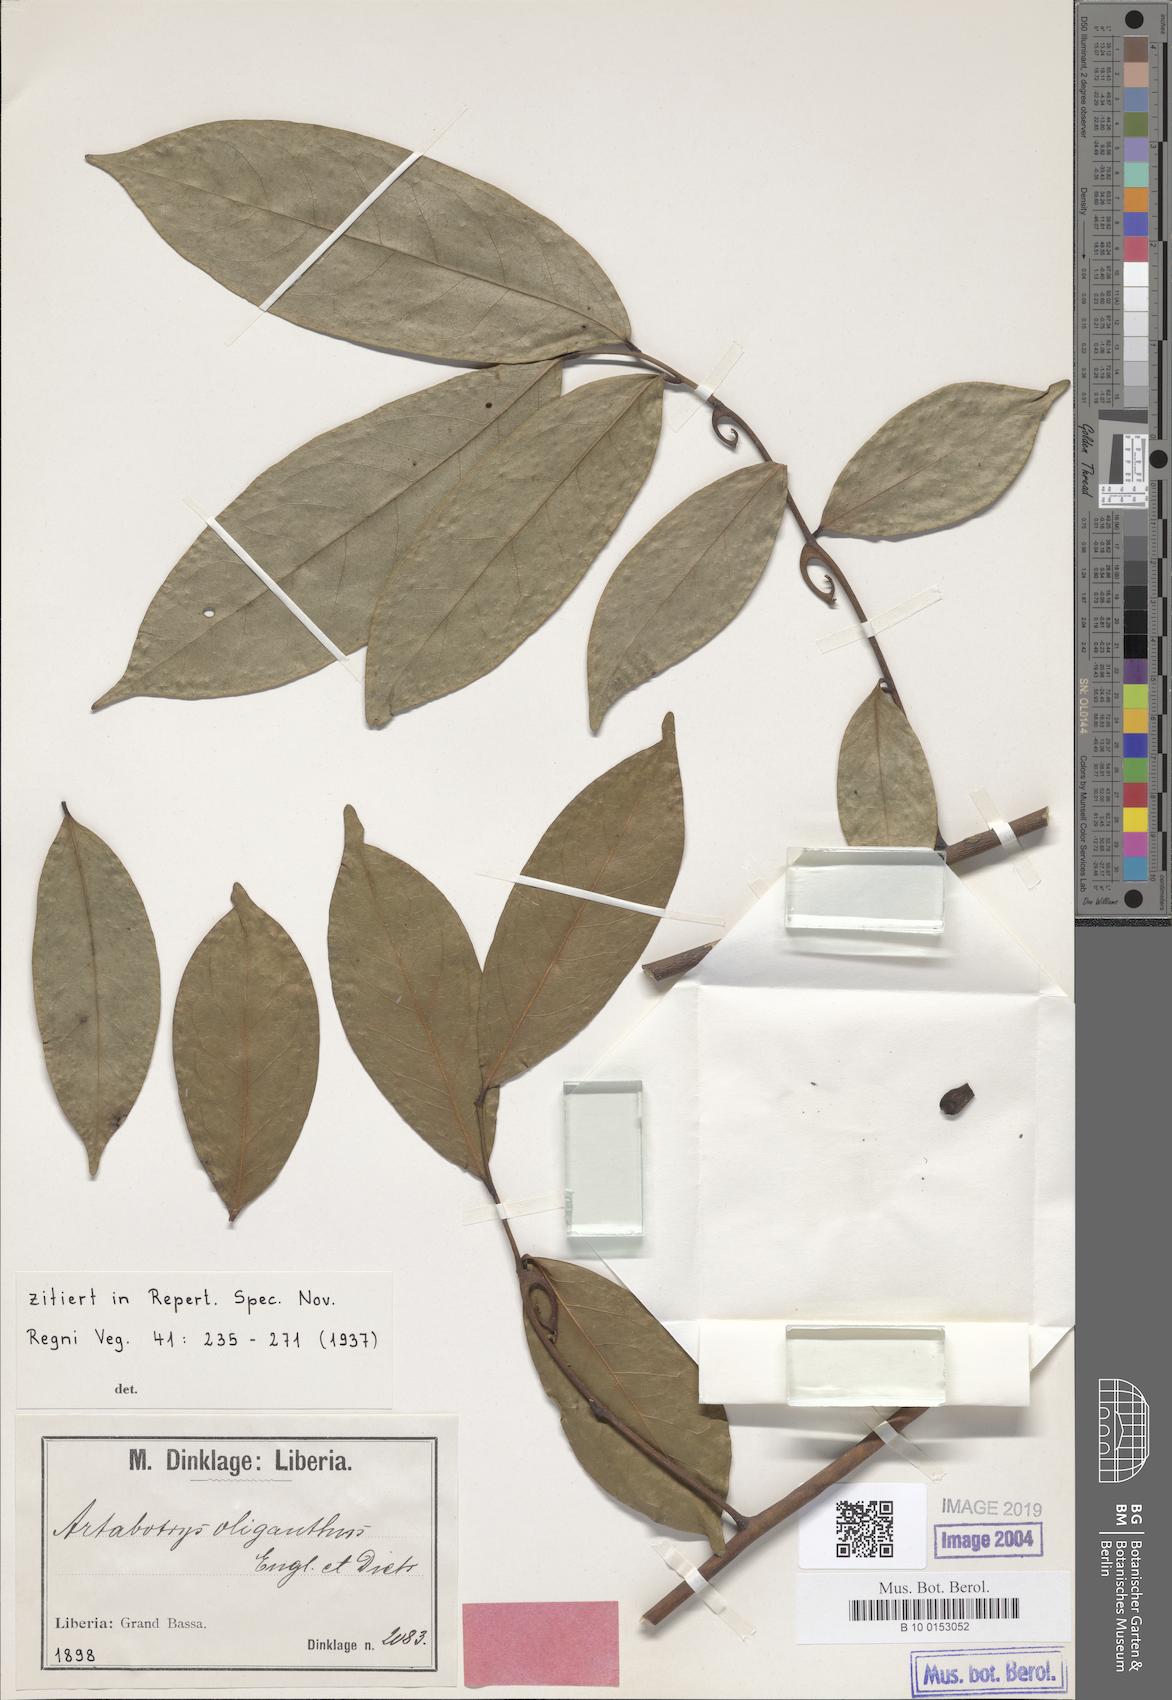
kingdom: Plantae
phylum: Tracheophyta
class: Magnoliopsida
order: Magnoliales
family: Annonaceae
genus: Artabotrys
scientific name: Artabotrys oliganthus
